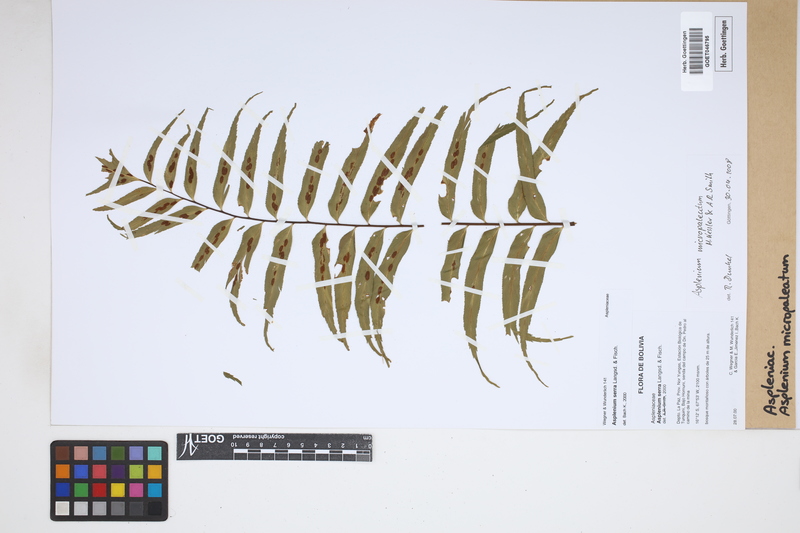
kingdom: Plantae
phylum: Tracheophyta
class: Polypodiopsida
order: Polypodiales
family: Aspleniaceae
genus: Asplenium
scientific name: Asplenium micropaleatum
